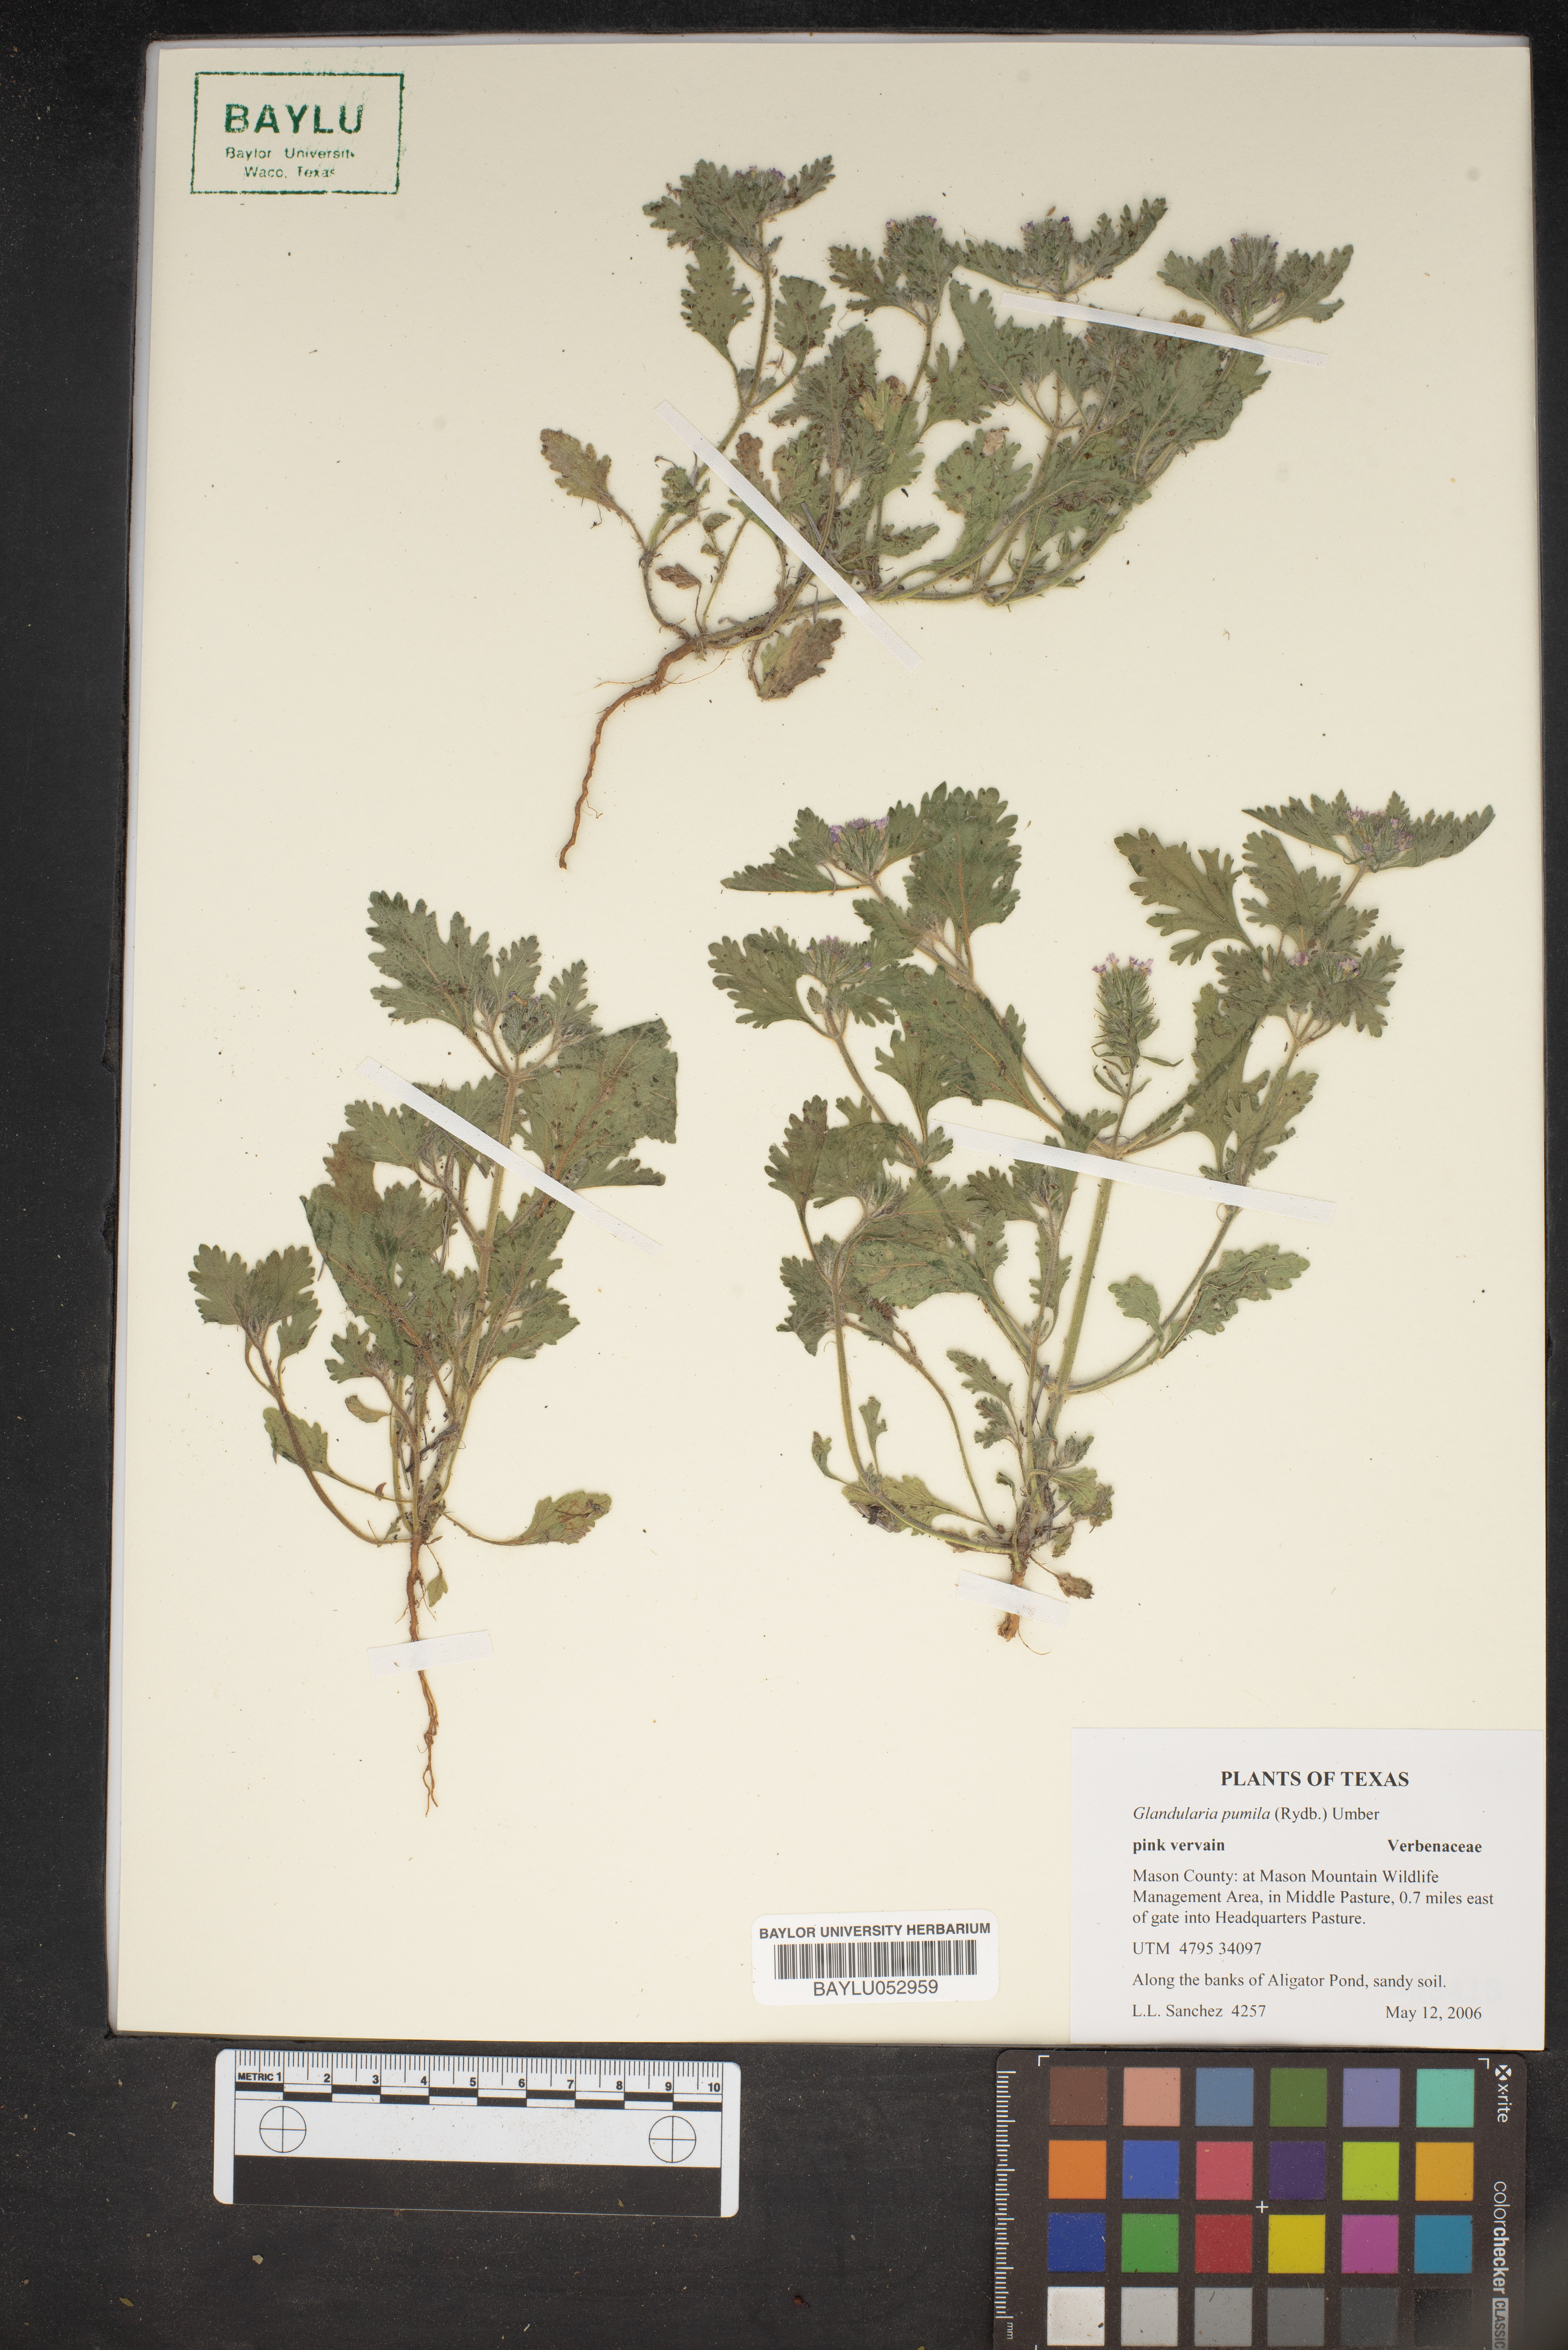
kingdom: Plantae
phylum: Tracheophyta
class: Magnoliopsida
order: Lamiales
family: Verbenaceae
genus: Verbena
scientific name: Verbena pumila
